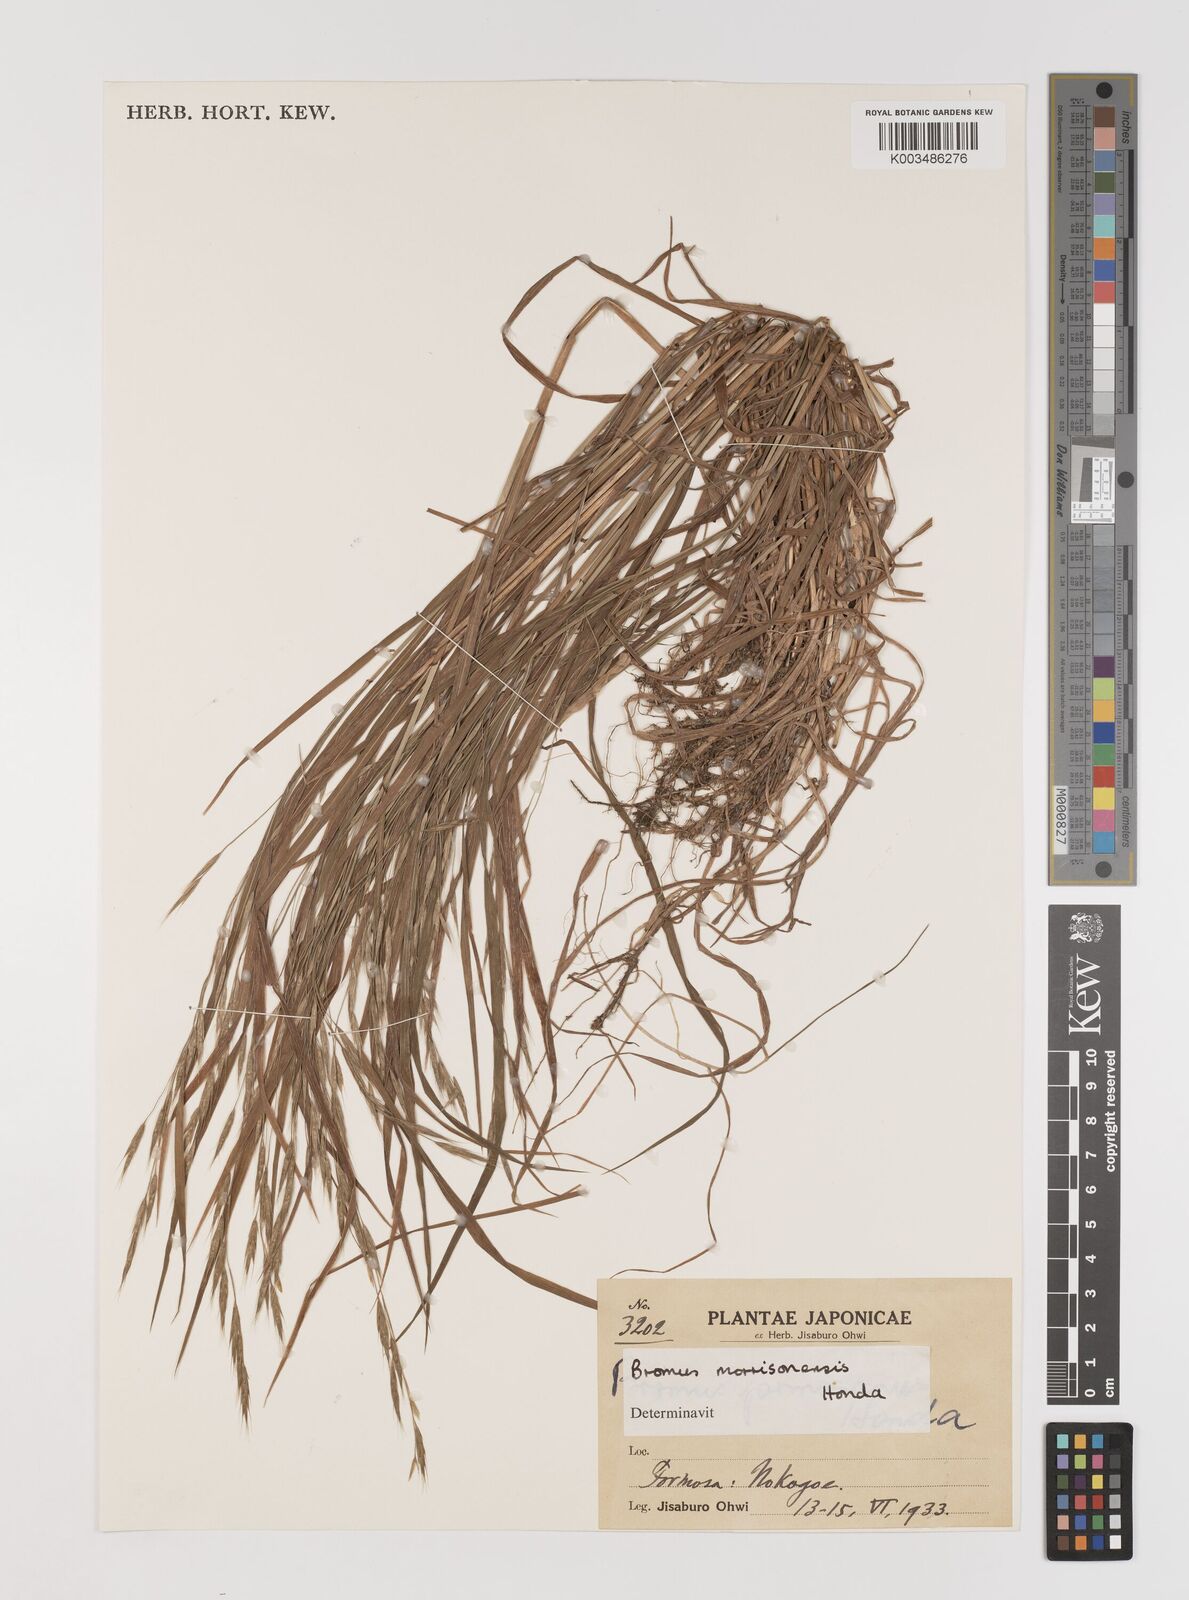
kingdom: Plantae
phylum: Tracheophyta
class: Liliopsida
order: Poales
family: Poaceae
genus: Bromus
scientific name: Bromus morrisonensis
